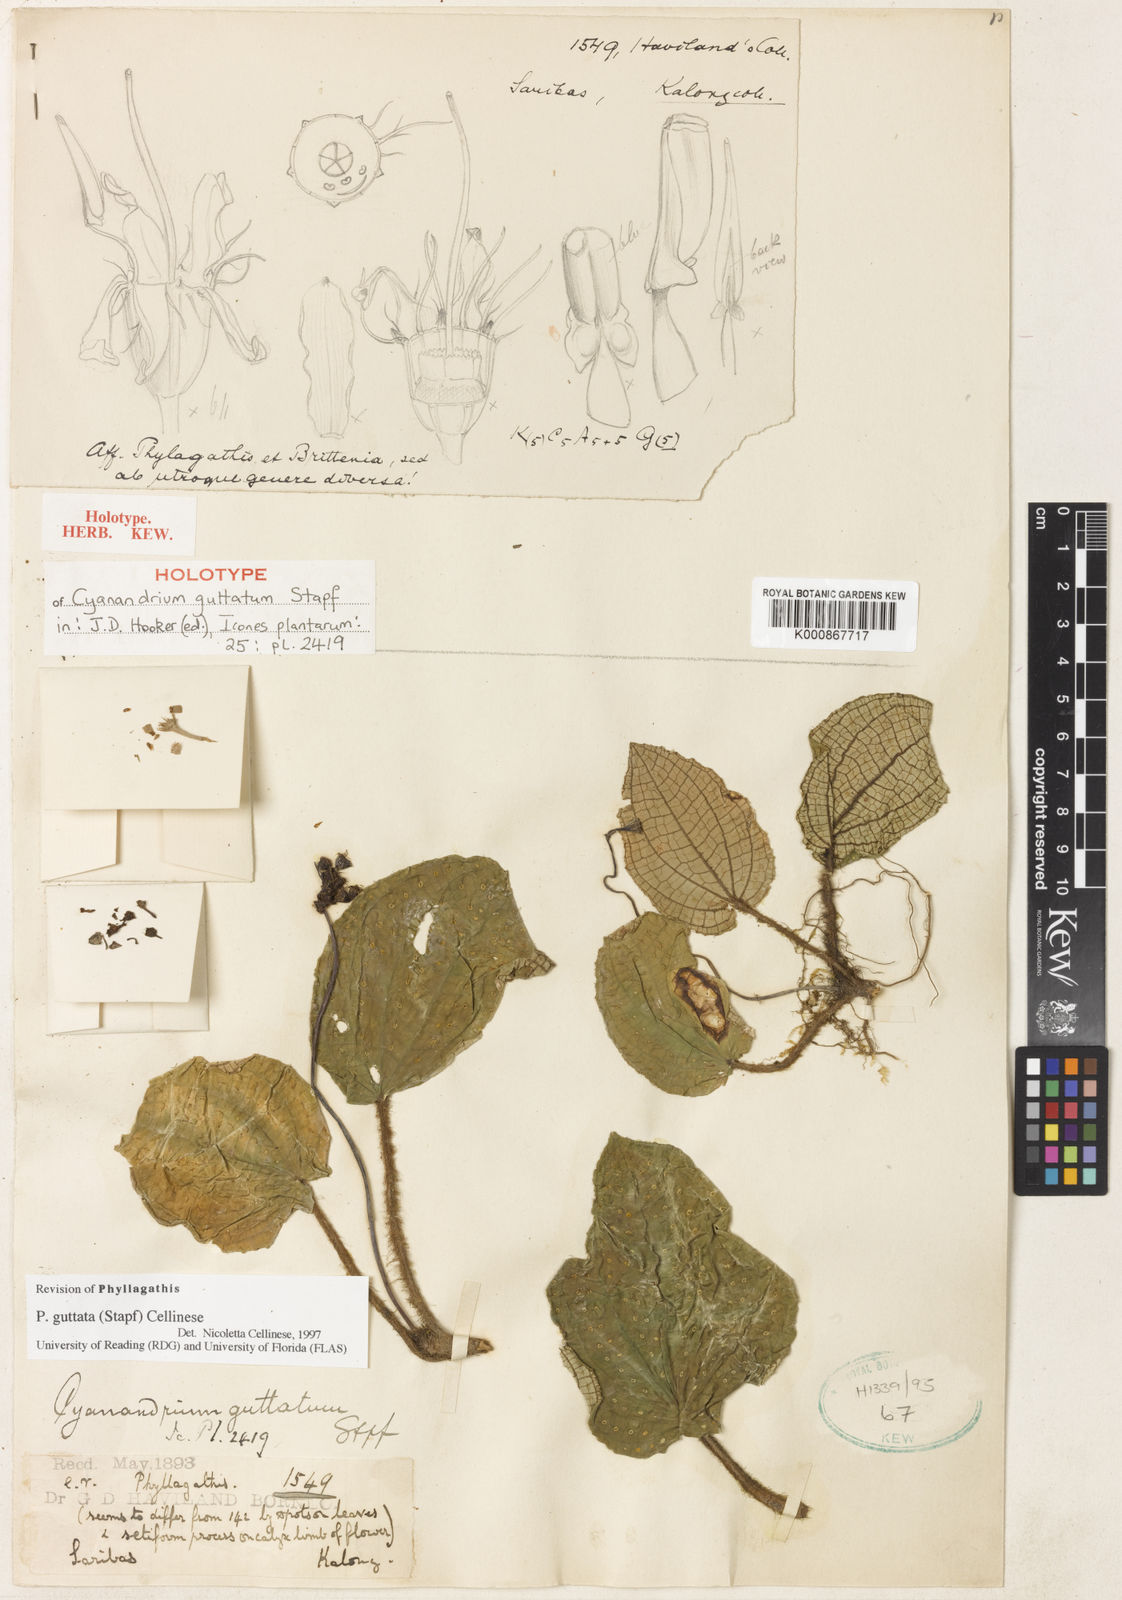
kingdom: Plantae
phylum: Tracheophyta
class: Magnoliopsida
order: Myrtales
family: Melastomataceae
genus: Cyanandrium
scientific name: Cyanandrium guttatum
